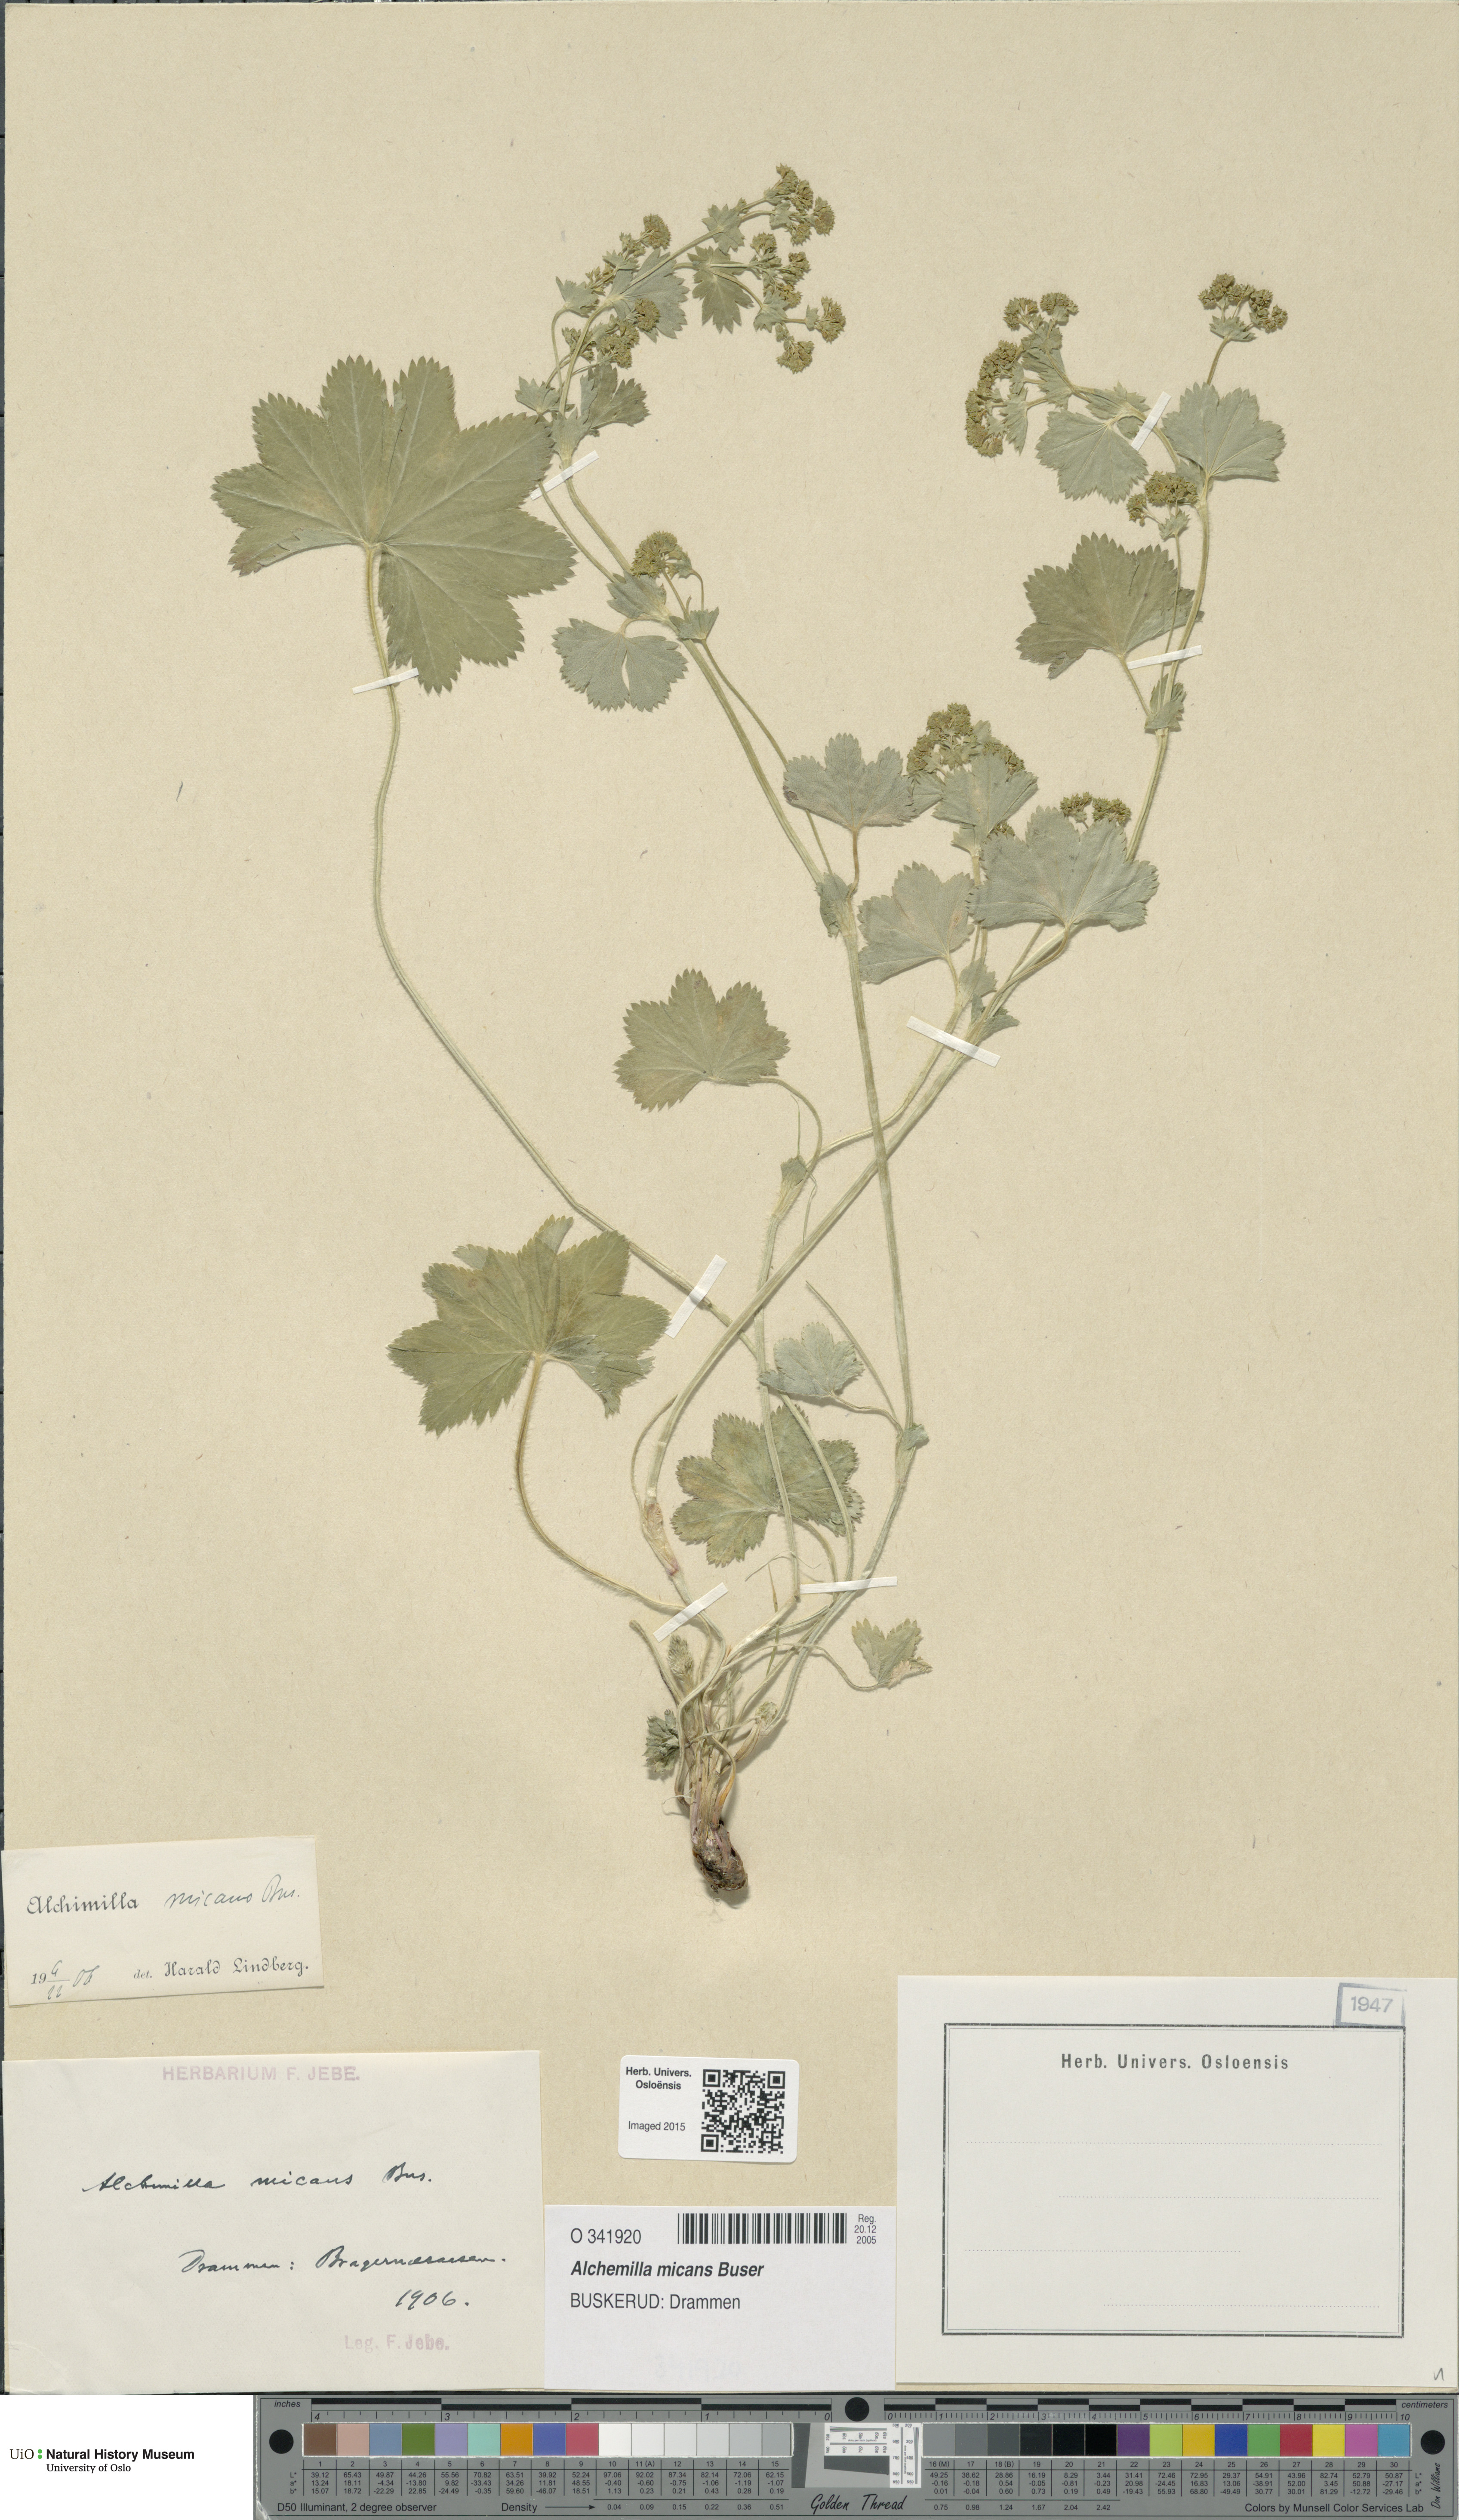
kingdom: Plantae
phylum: Tracheophyta
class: Magnoliopsida
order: Rosales
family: Rosaceae
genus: Alchemilla
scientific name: Alchemilla micans
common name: Gleaming lady's mantle
